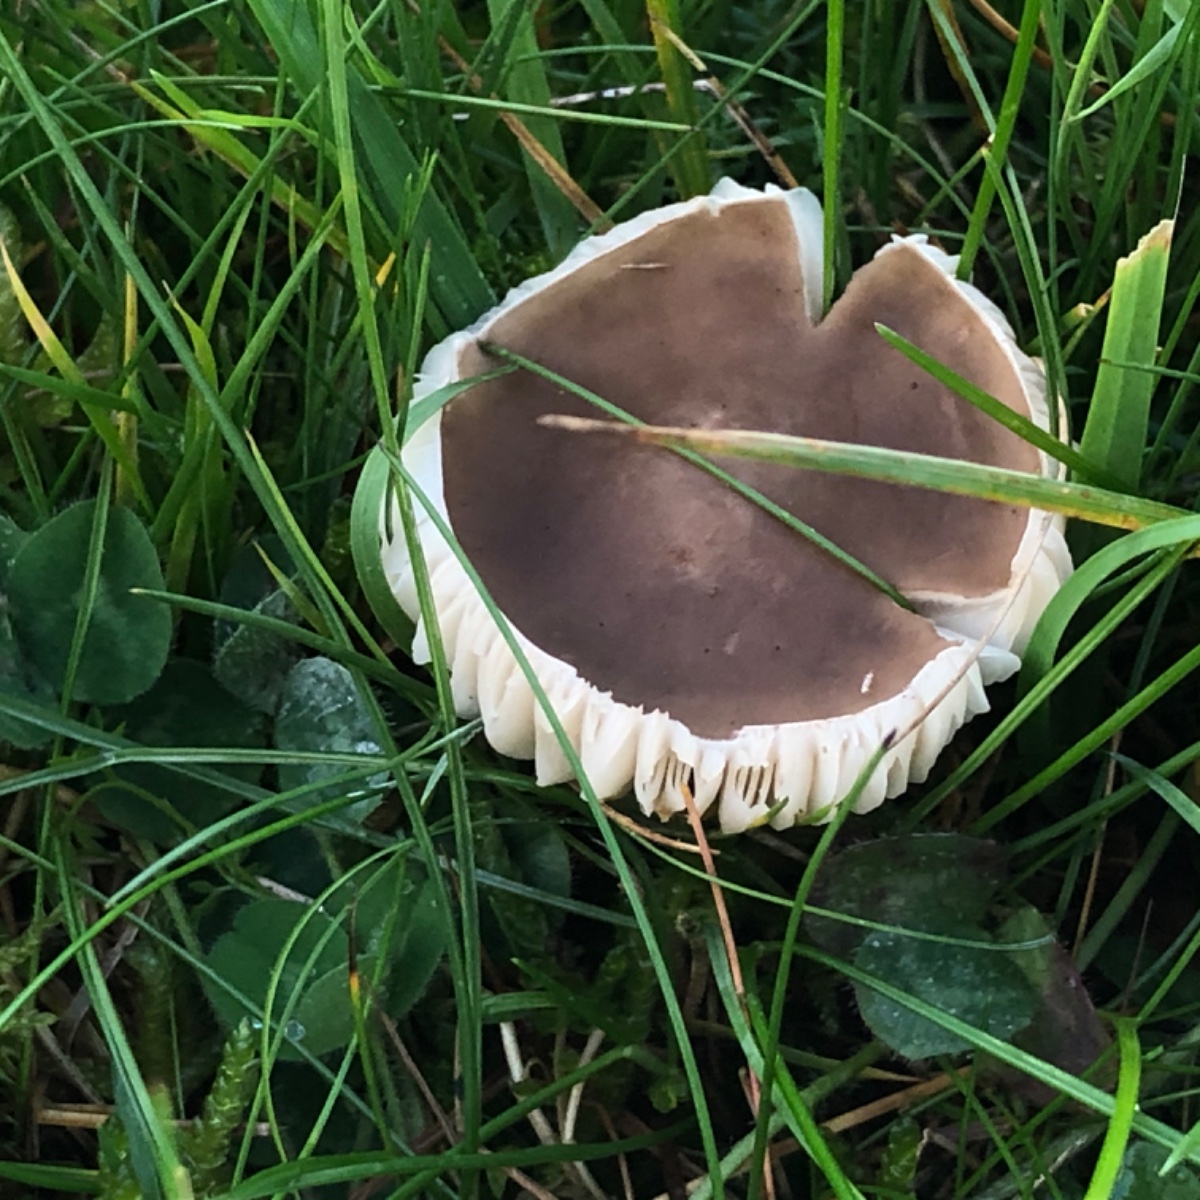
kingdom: Fungi
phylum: Basidiomycota
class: Agaricomycetes
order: Agaricales
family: Tricholomataceae
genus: Melanoleuca
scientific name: Melanoleuca
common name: munkehat
